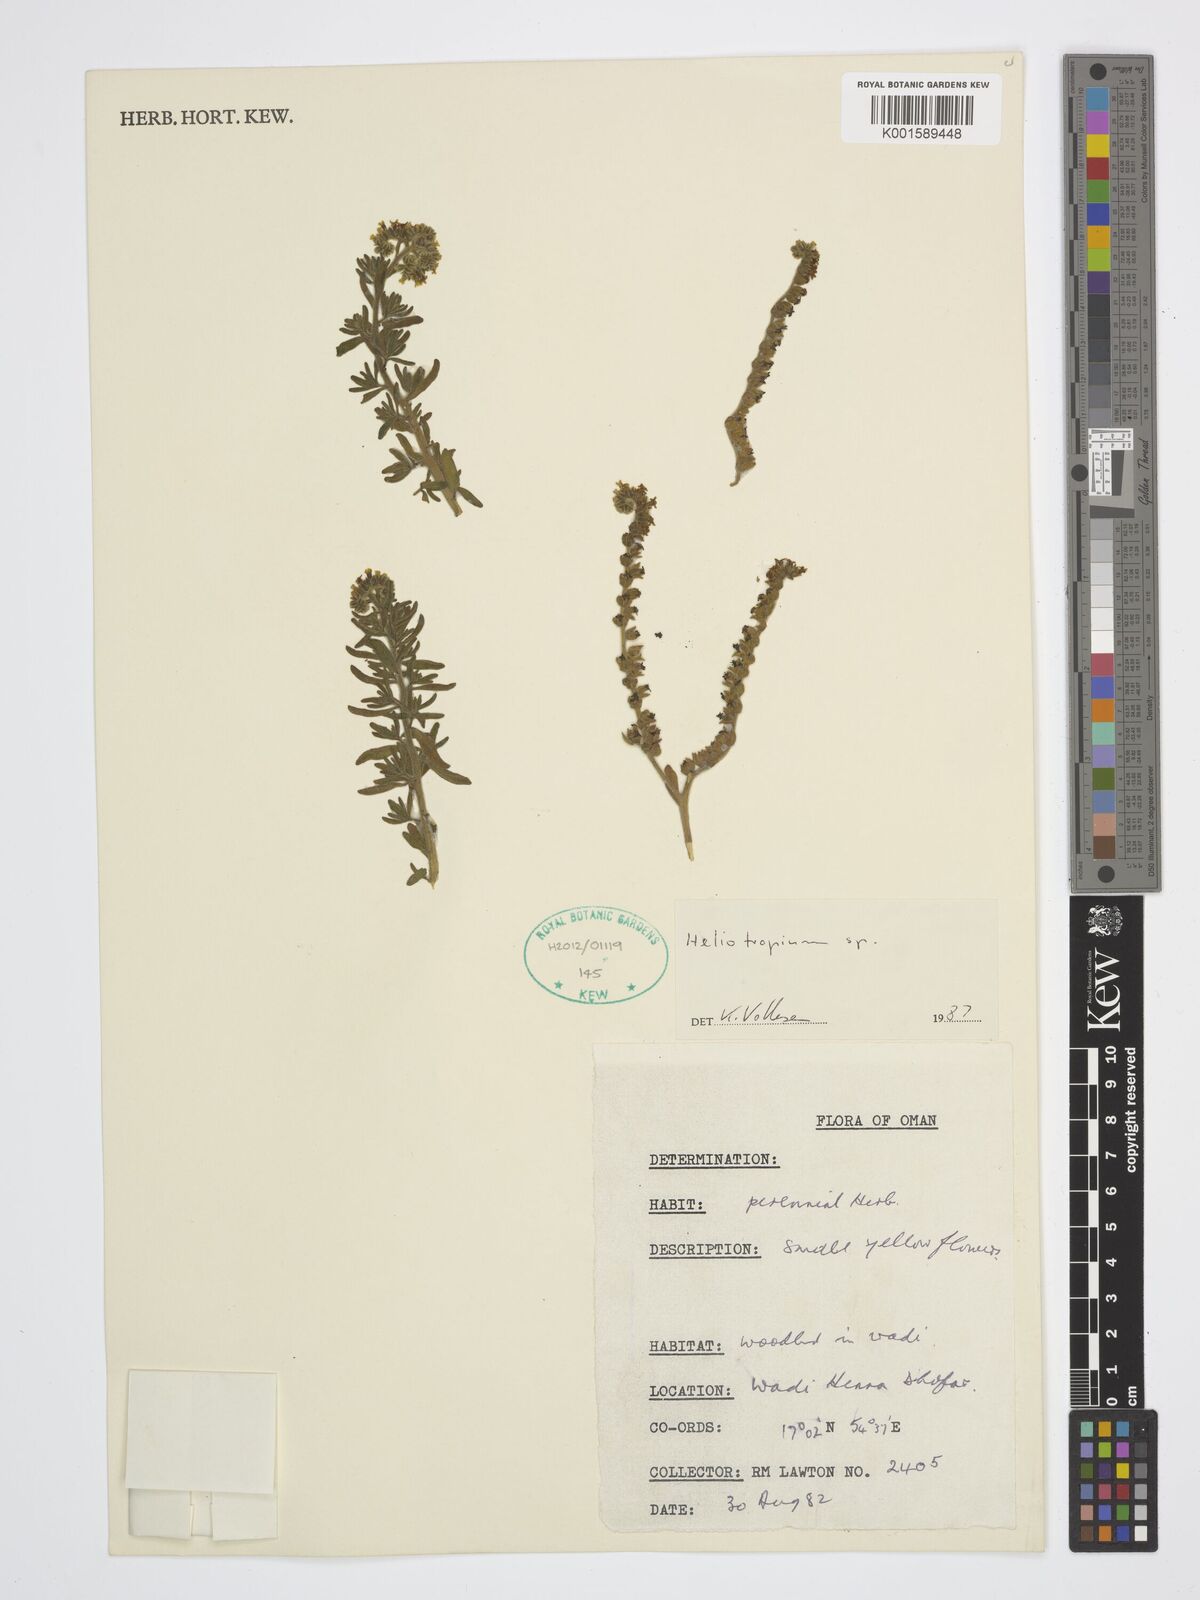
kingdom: Plantae
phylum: Tracheophyta
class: Magnoliopsida
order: Boraginales
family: Heliotropiaceae
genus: Heliotropium
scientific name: Heliotropium
